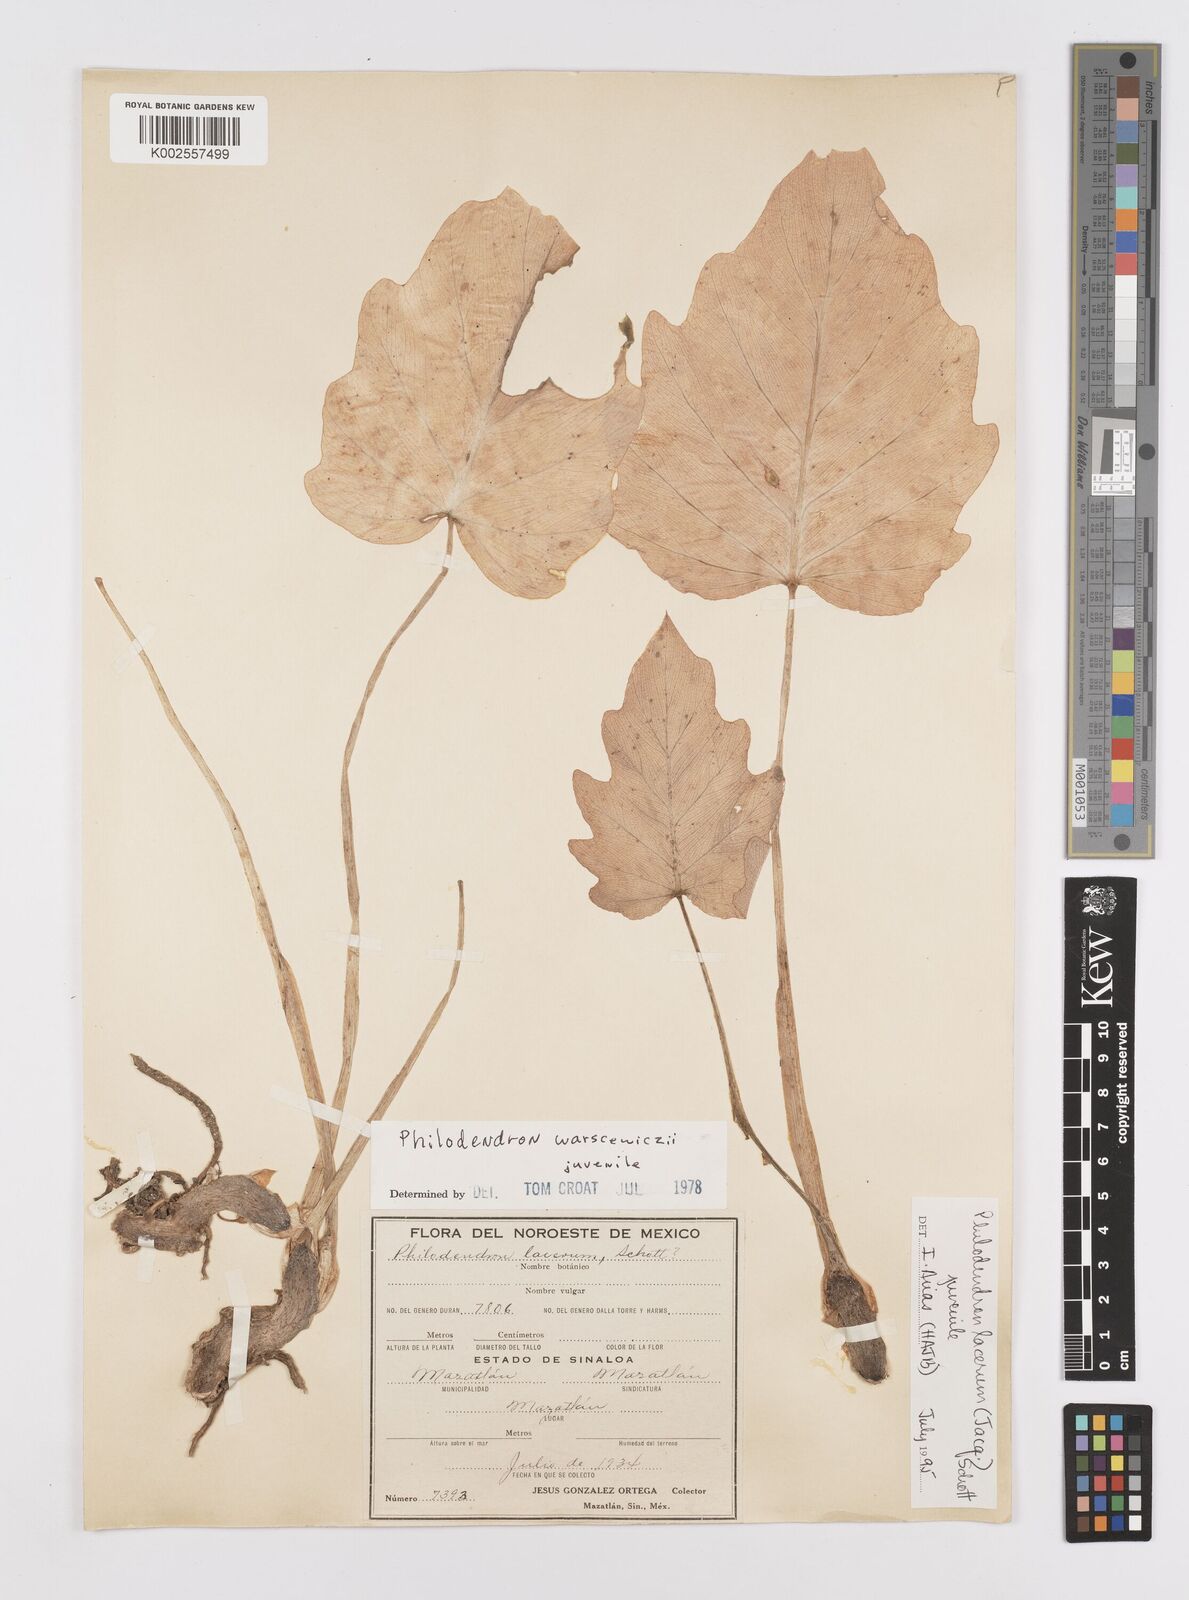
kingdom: Plantae
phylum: Tracheophyta
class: Liliopsida
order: Alismatales
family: Araceae
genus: Philodendron
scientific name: Philodendron lacerum
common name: Philodendron
